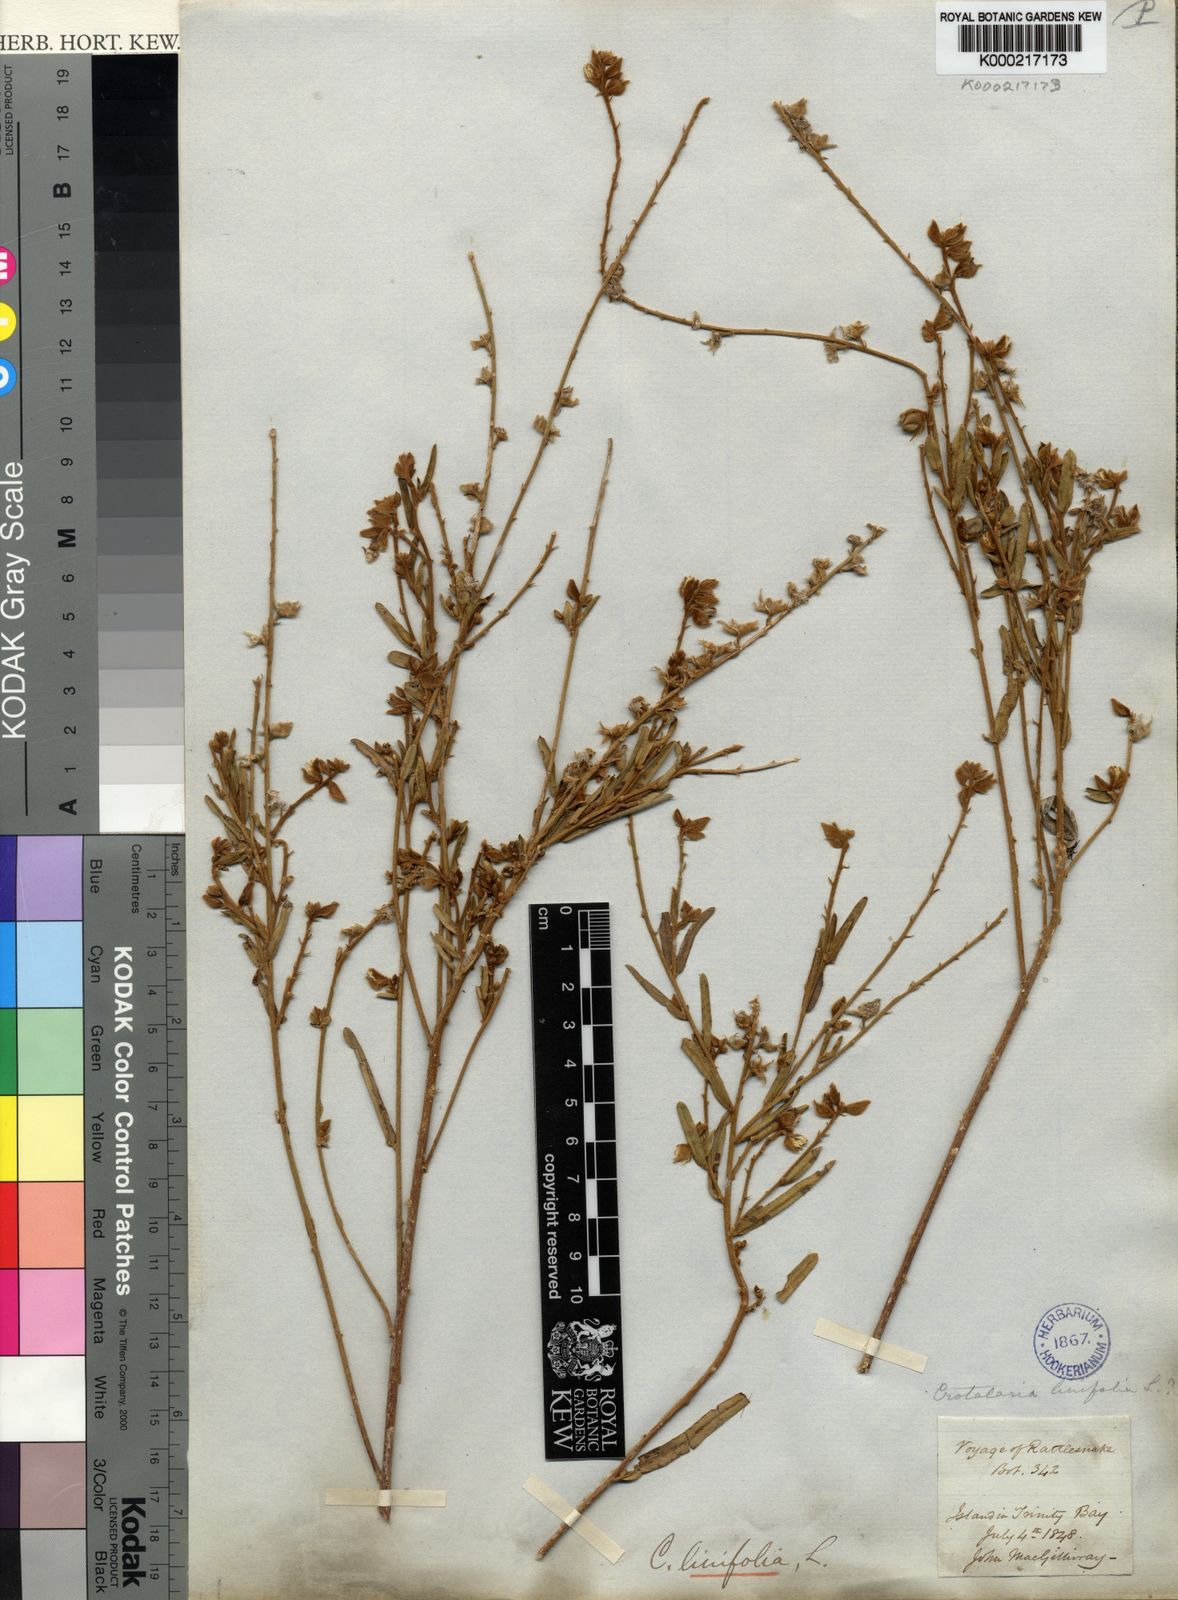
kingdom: Plantae
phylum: Tracheophyta
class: Magnoliopsida
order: Fabales
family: Fabaceae
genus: Crotalaria
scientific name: Crotalaria linifolia
